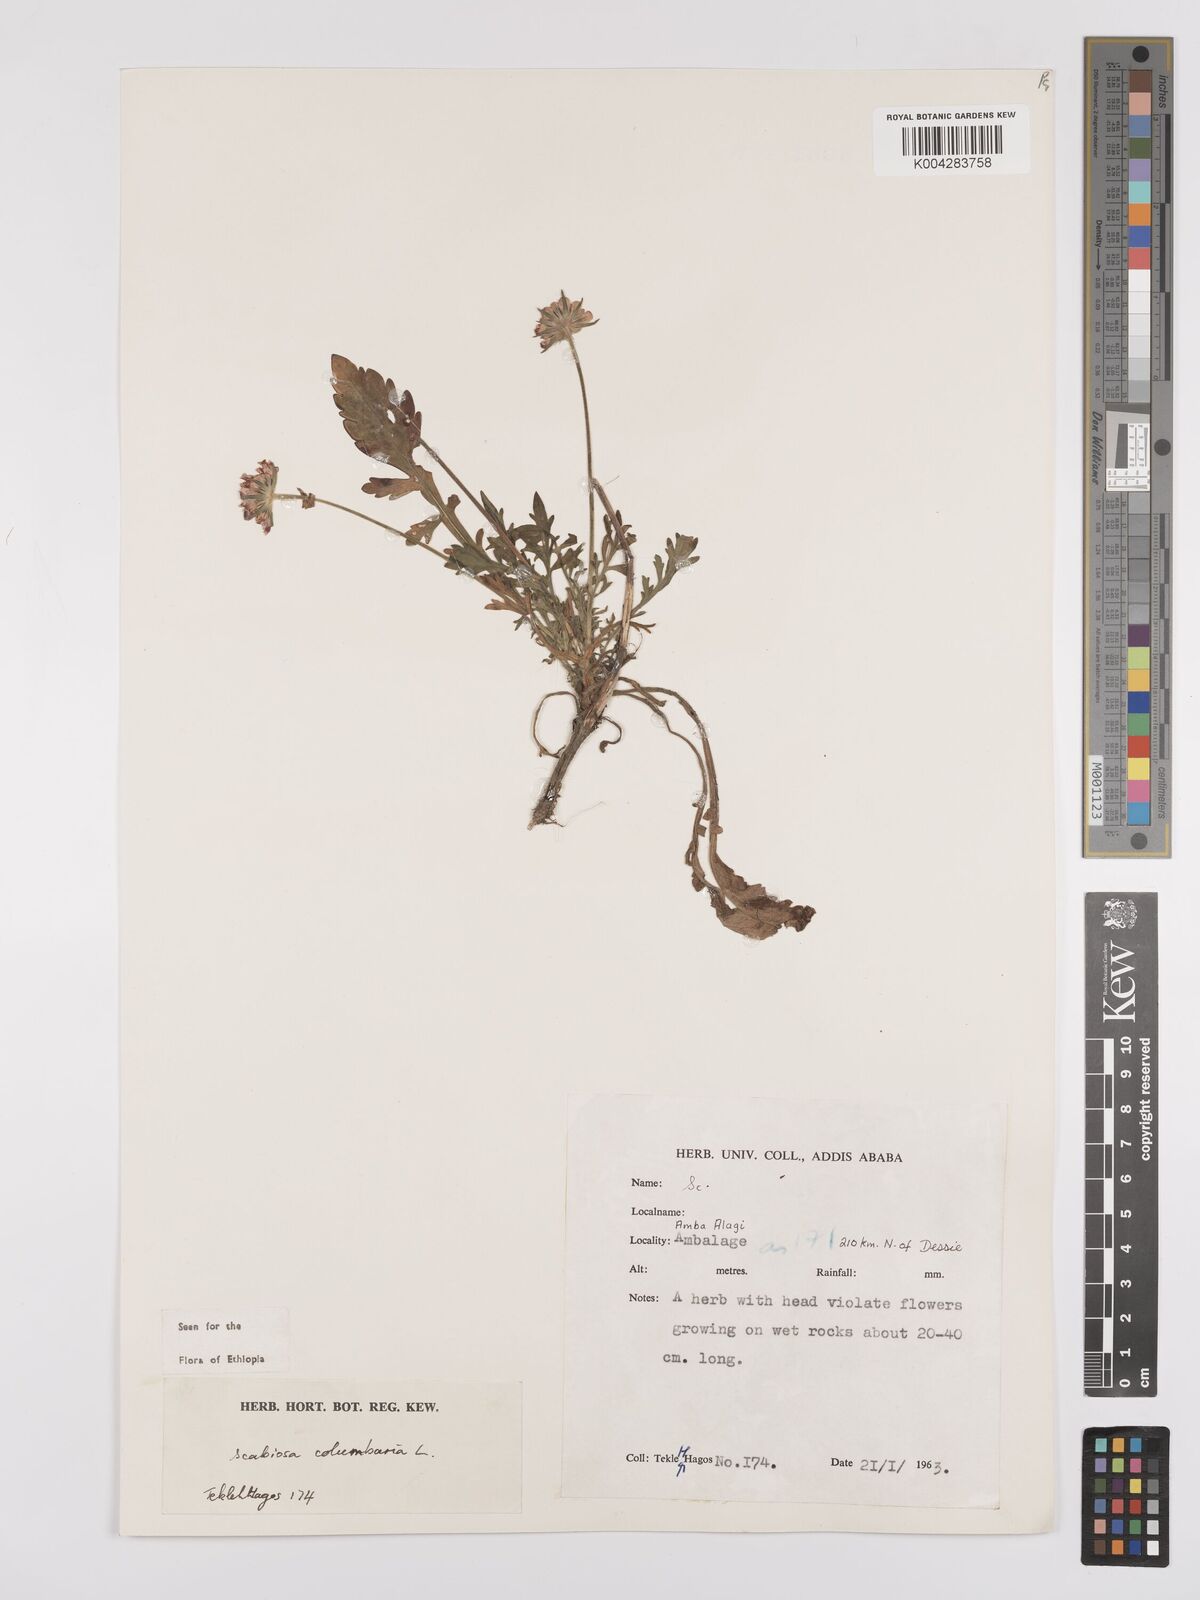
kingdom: Plantae
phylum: Tracheophyta
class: Magnoliopsida
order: Dipsacales
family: Caprifoliaceae
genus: Scabiosa
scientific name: Scabiosa columbaria
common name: Small scabious
